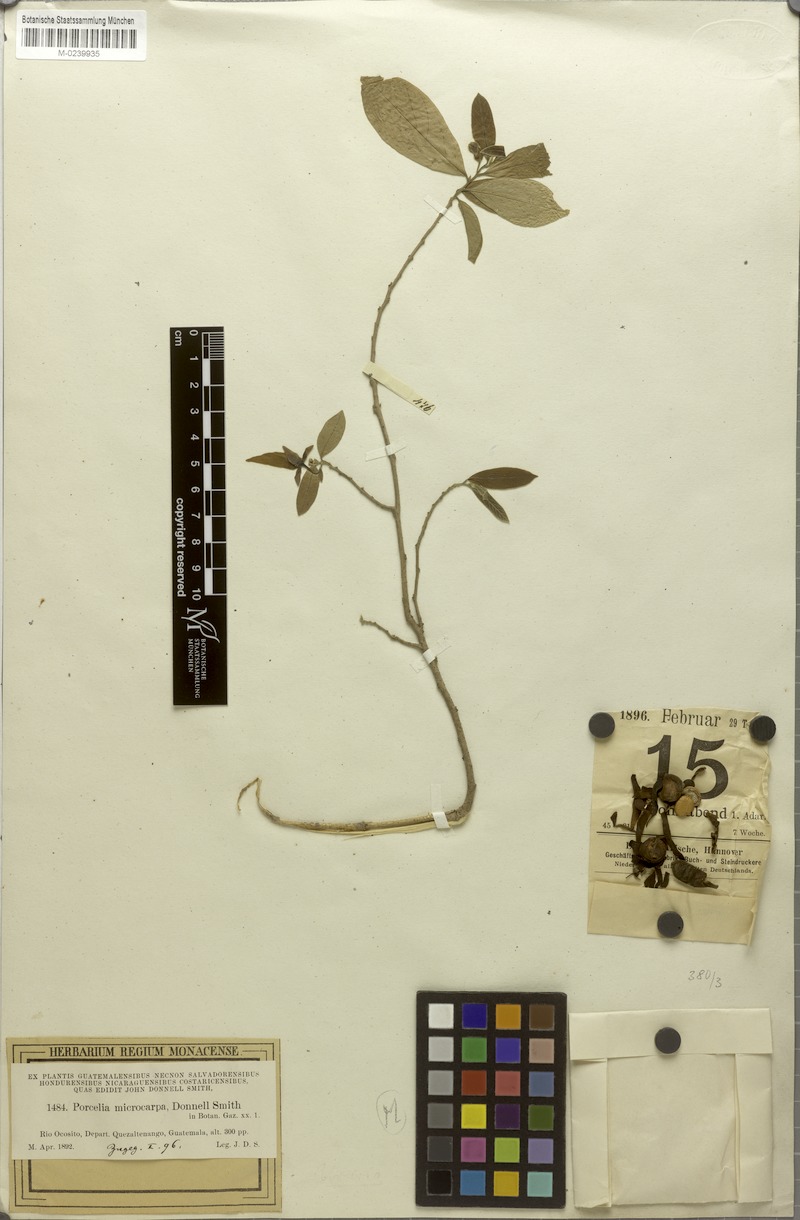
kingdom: Plantae
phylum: Tracheophyta
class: Magnoliopsida
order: Magnoliales
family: Annonaceae
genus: Sapranthus
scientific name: Sapranthus microcarpus
